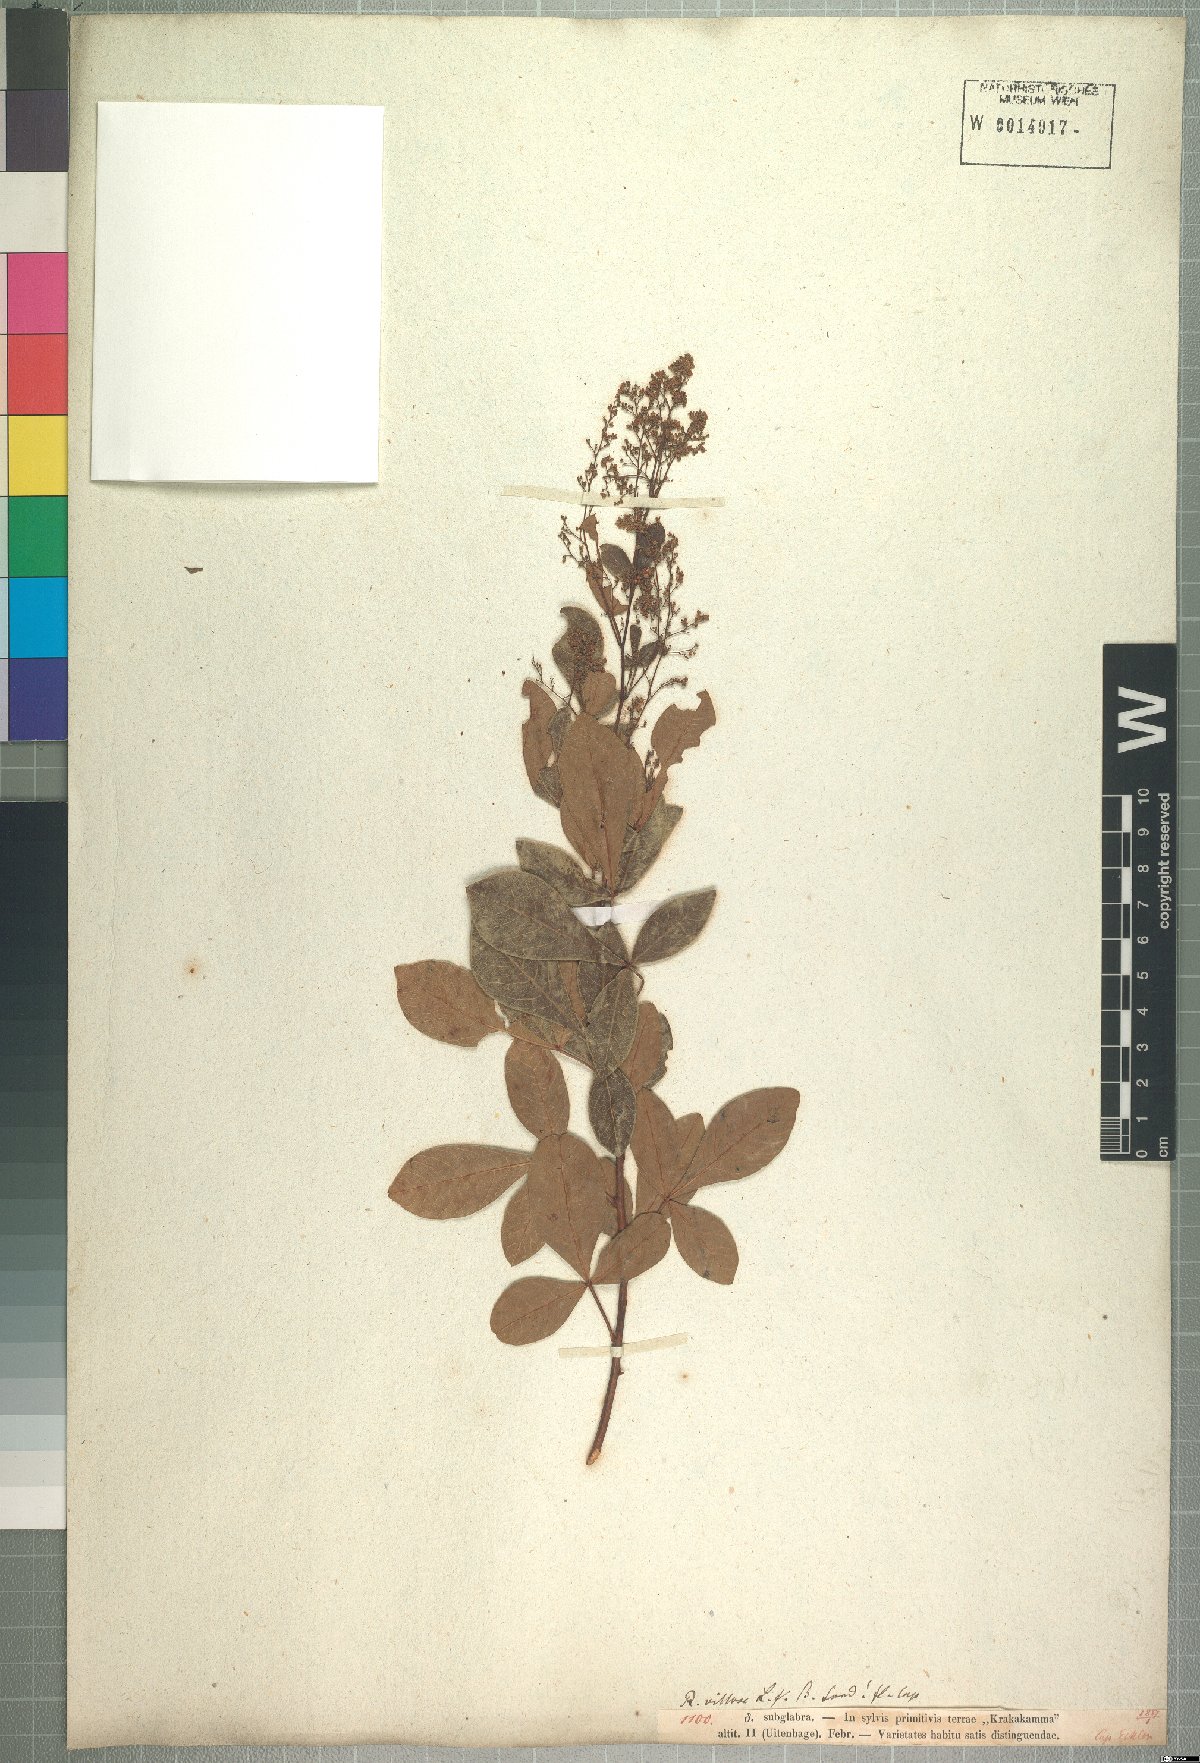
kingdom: Plantae
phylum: Tracheophyta
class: Magnoliopsida
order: Sapindales
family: Anacardiaceae
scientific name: Anacardiaceae
